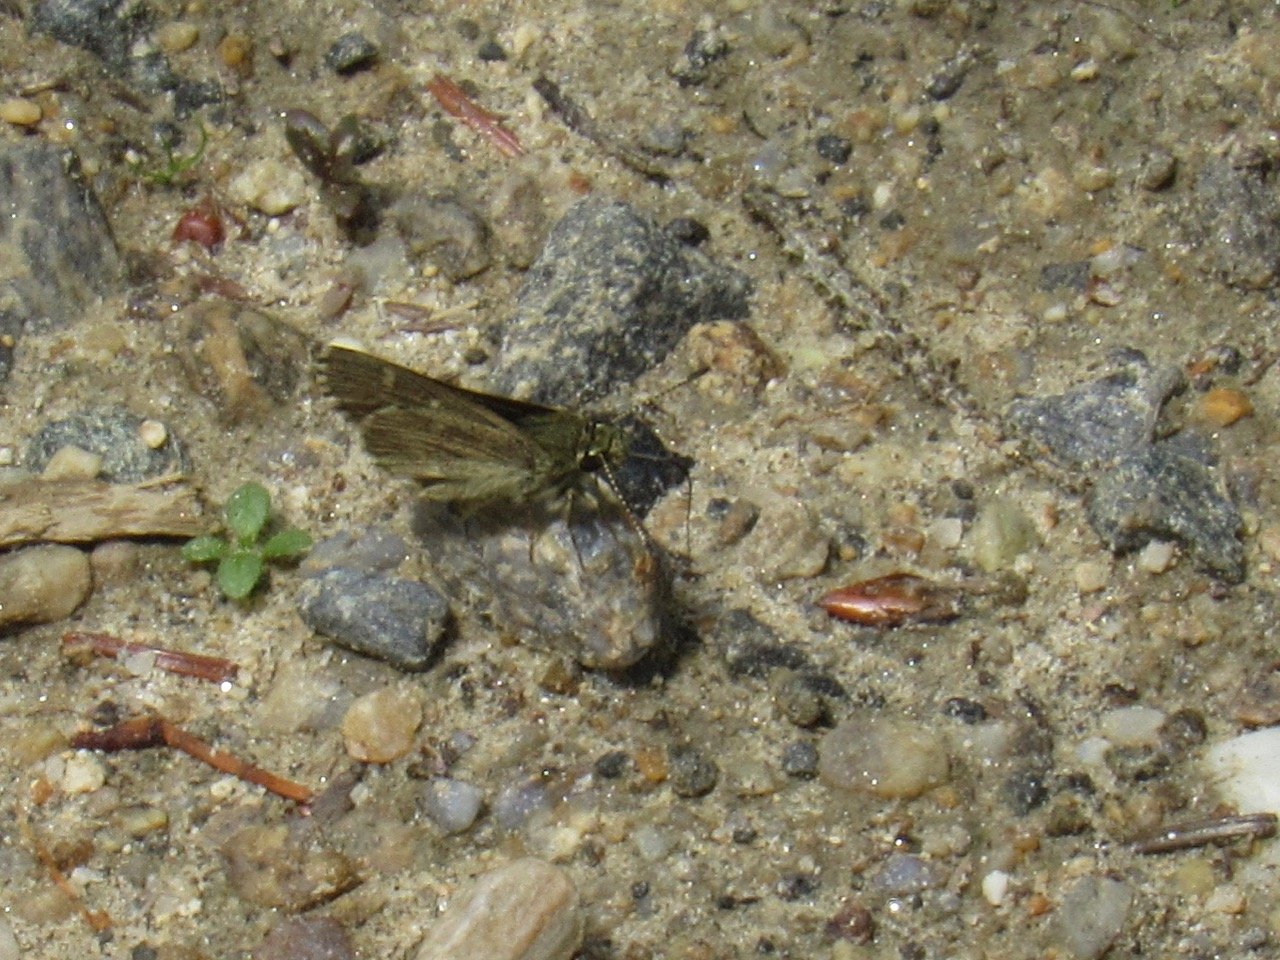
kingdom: Animalia
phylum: Arthropoda
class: Insecta
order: Lepidoptera
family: Hesperiidae
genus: Mastor
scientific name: Mastor hegon
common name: Pepper and Salt Skipper
